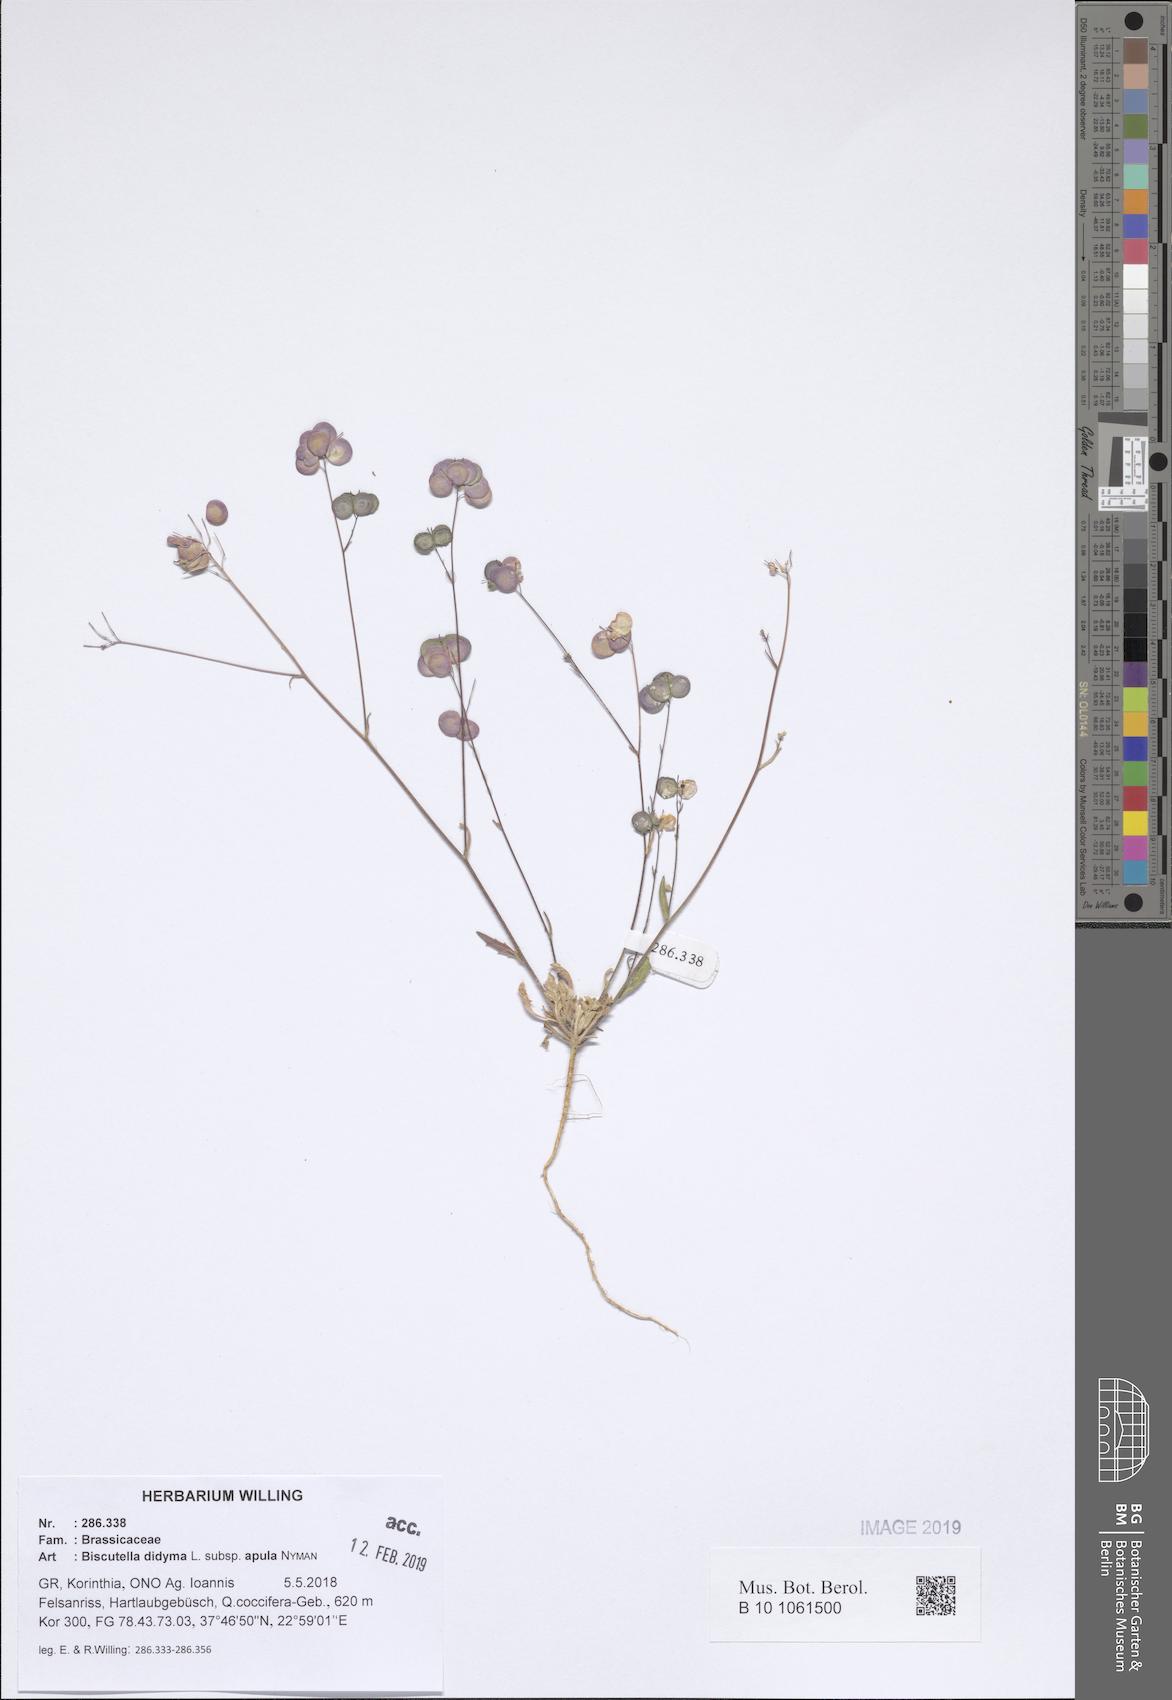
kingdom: Plantae
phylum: Tracheophyta
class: Magnoliopsida
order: Brassicales
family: Brassicaceae
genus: Biscutella
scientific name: Biscutella didyma
